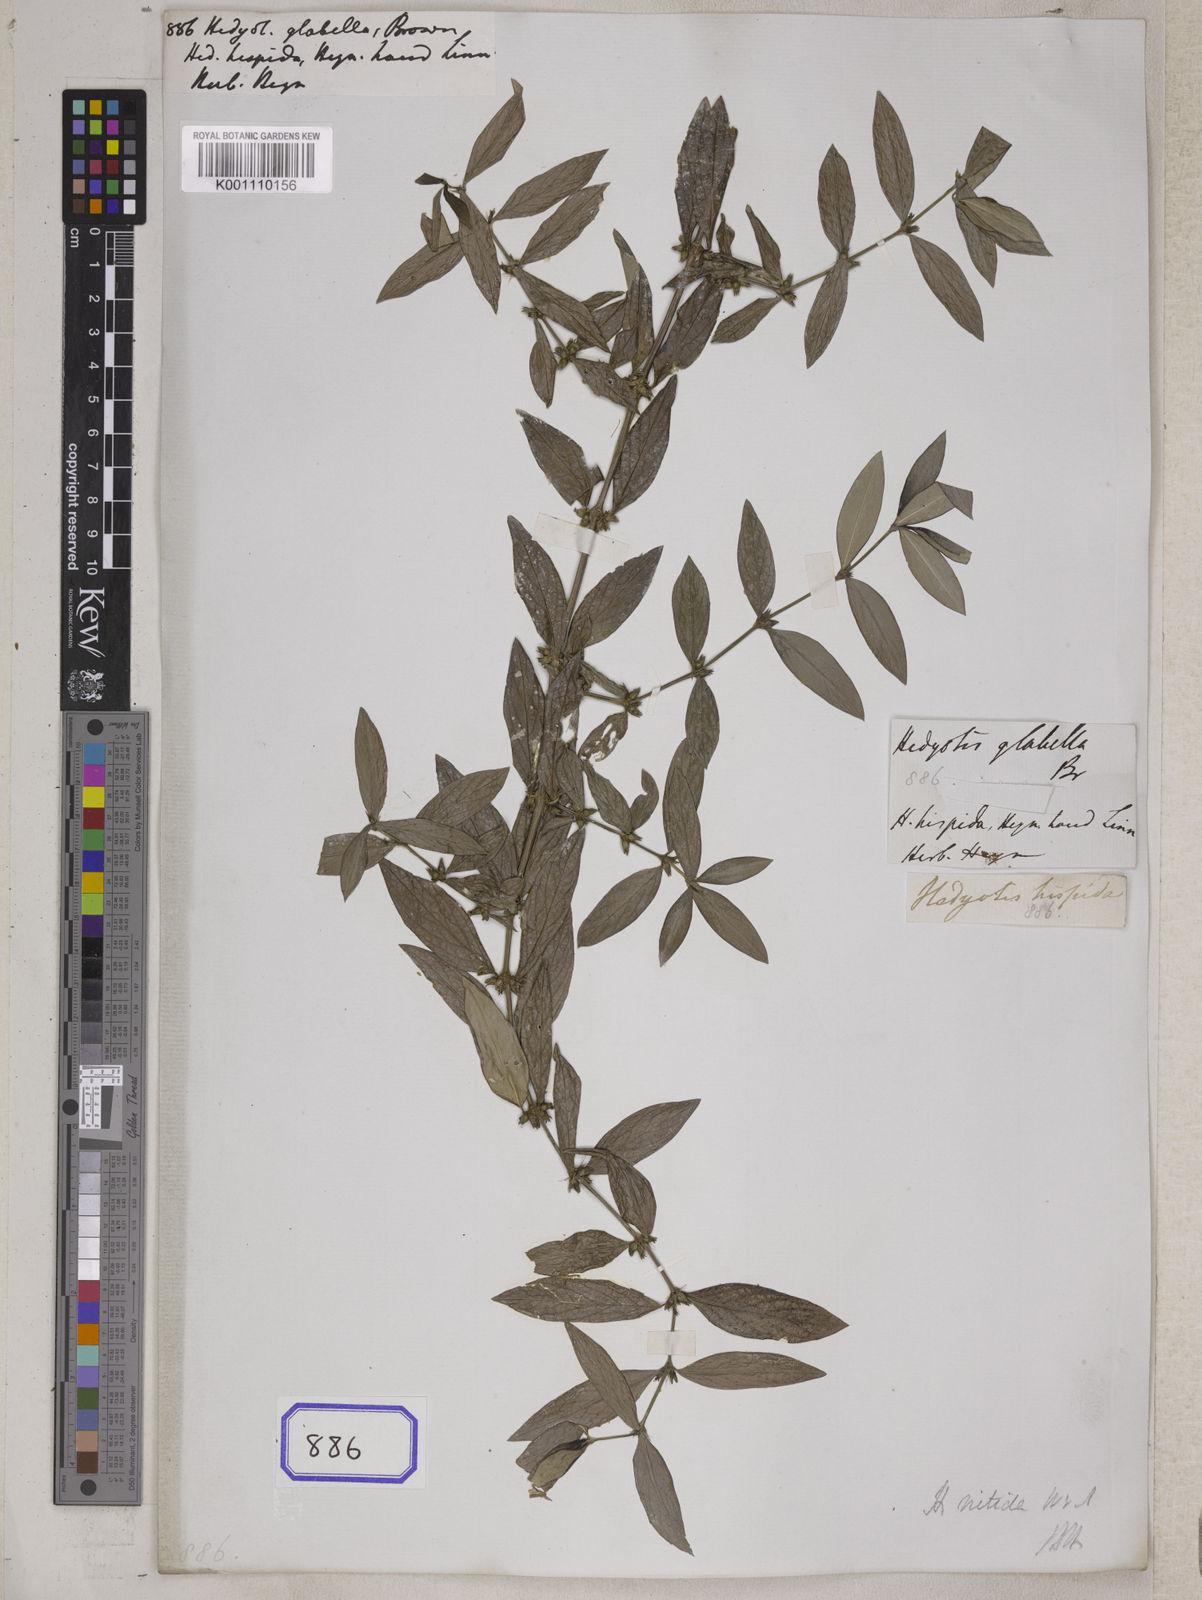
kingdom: Plantae
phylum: Tracheophyta
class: Magnoliopsida
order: Gentianales
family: Rubiaceae
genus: Hedyotis
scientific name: Hedyotis
